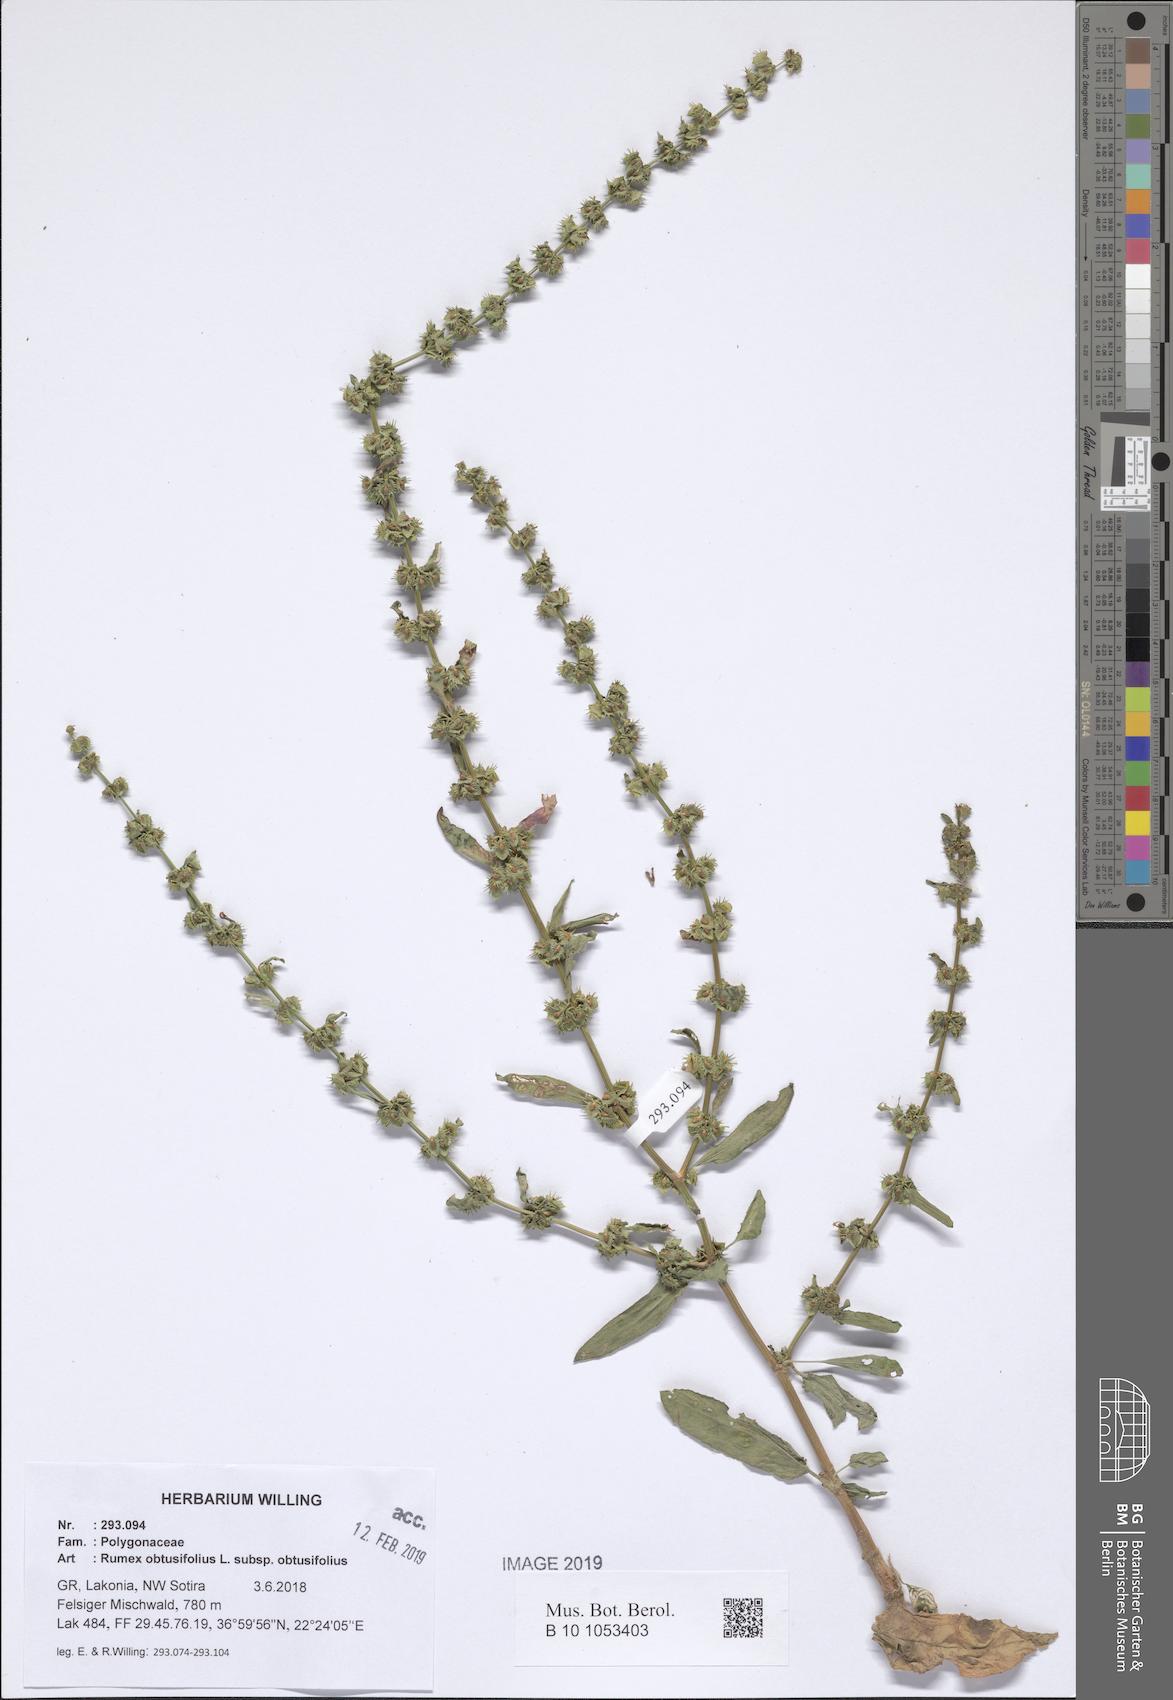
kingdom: Plantae
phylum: Tracheophyta
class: Magnoliopsida
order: Caryophyllales
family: Polygonaceae
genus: Rumex
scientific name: Rumex obtusifolius
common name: Bitter dock
